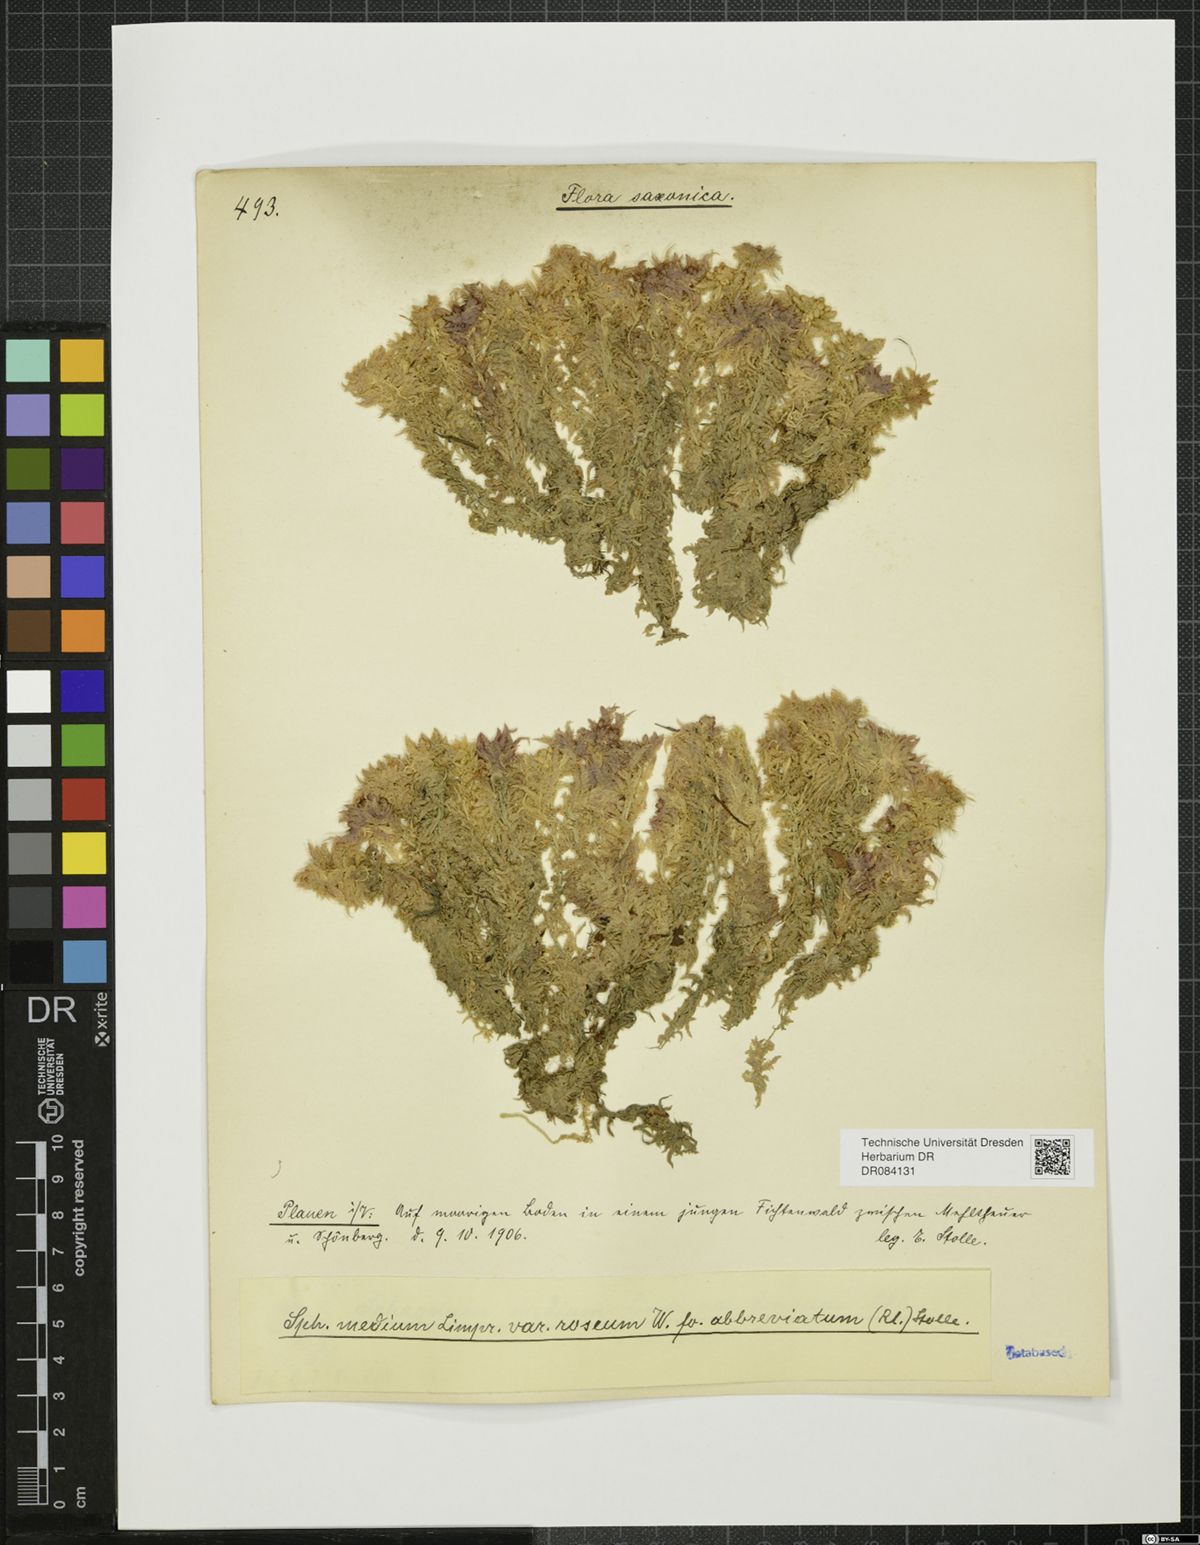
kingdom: Plantae
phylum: Bryophyta
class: Sphagnopsida
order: Sphagnales
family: Sphagnaceae
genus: Sphagnum
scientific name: Sphagnum
